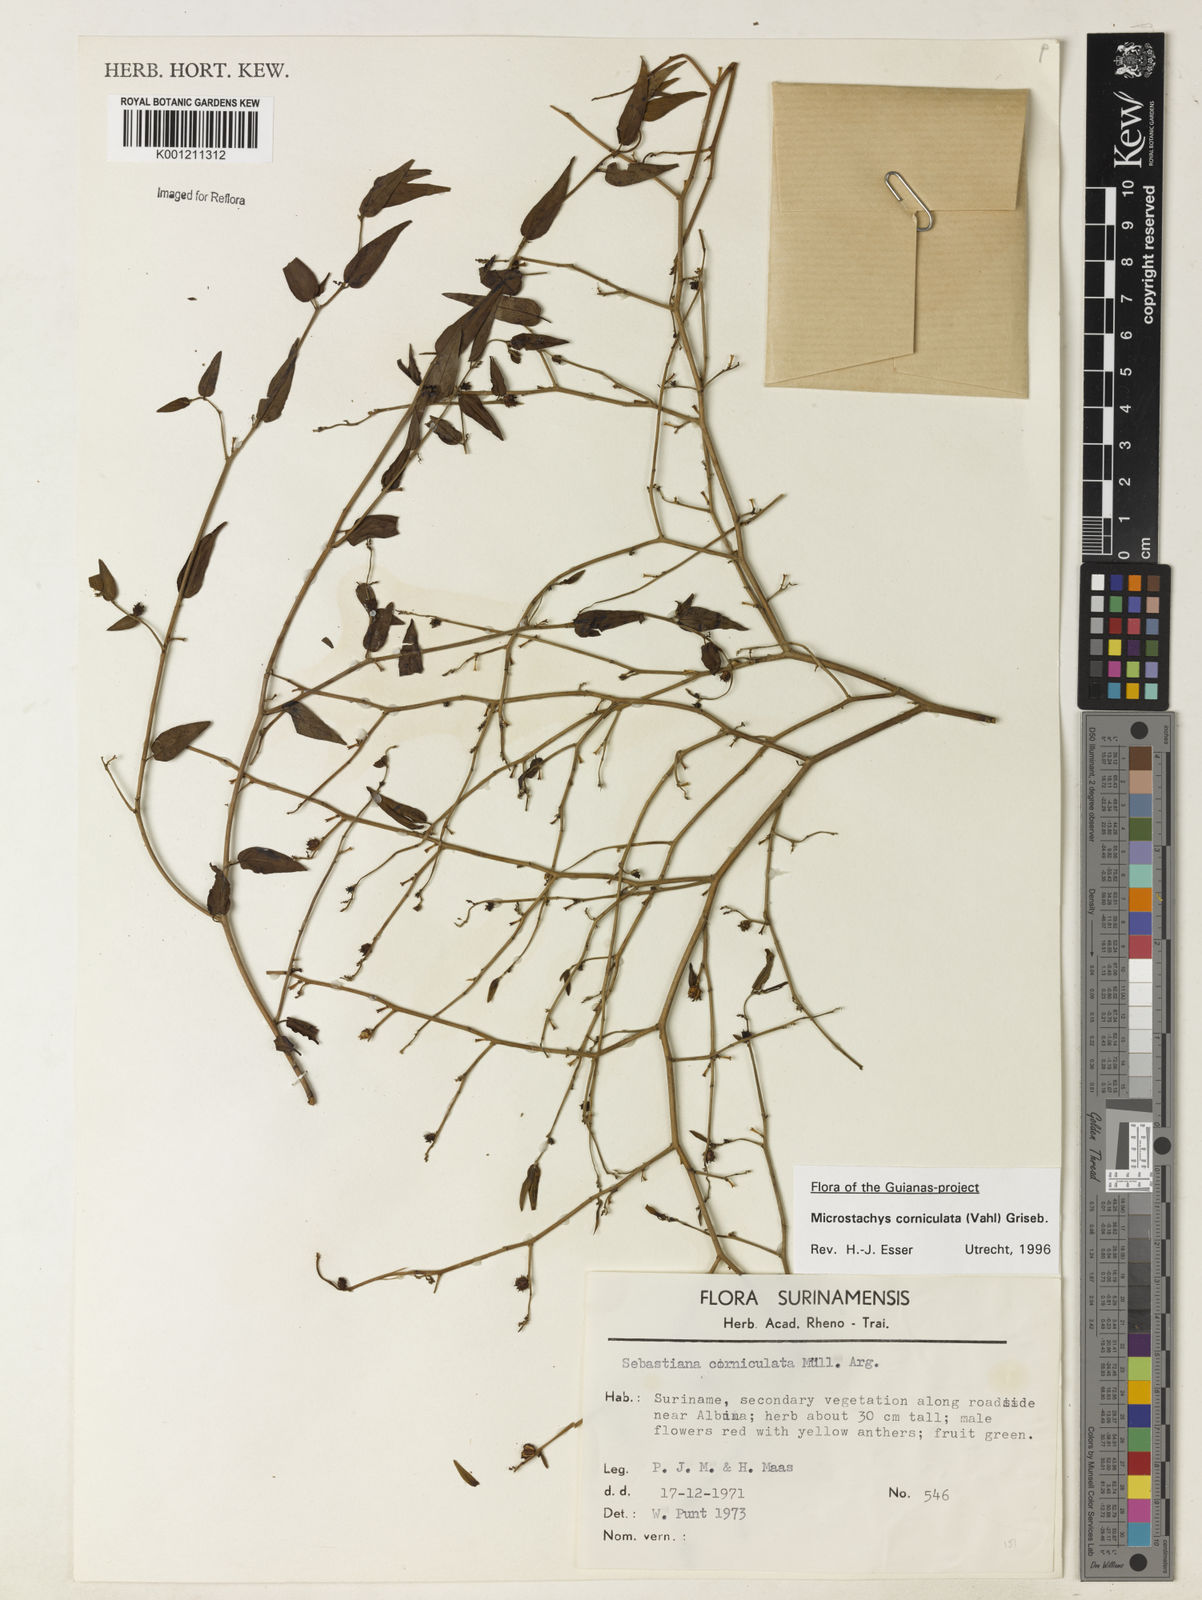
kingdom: Plantae
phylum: Tracheophyta
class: Magnoliopsida
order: Malpighiales
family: Euphorbiaceae
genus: Microstachys
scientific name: Microstachys corniculata
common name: Hato tejas
